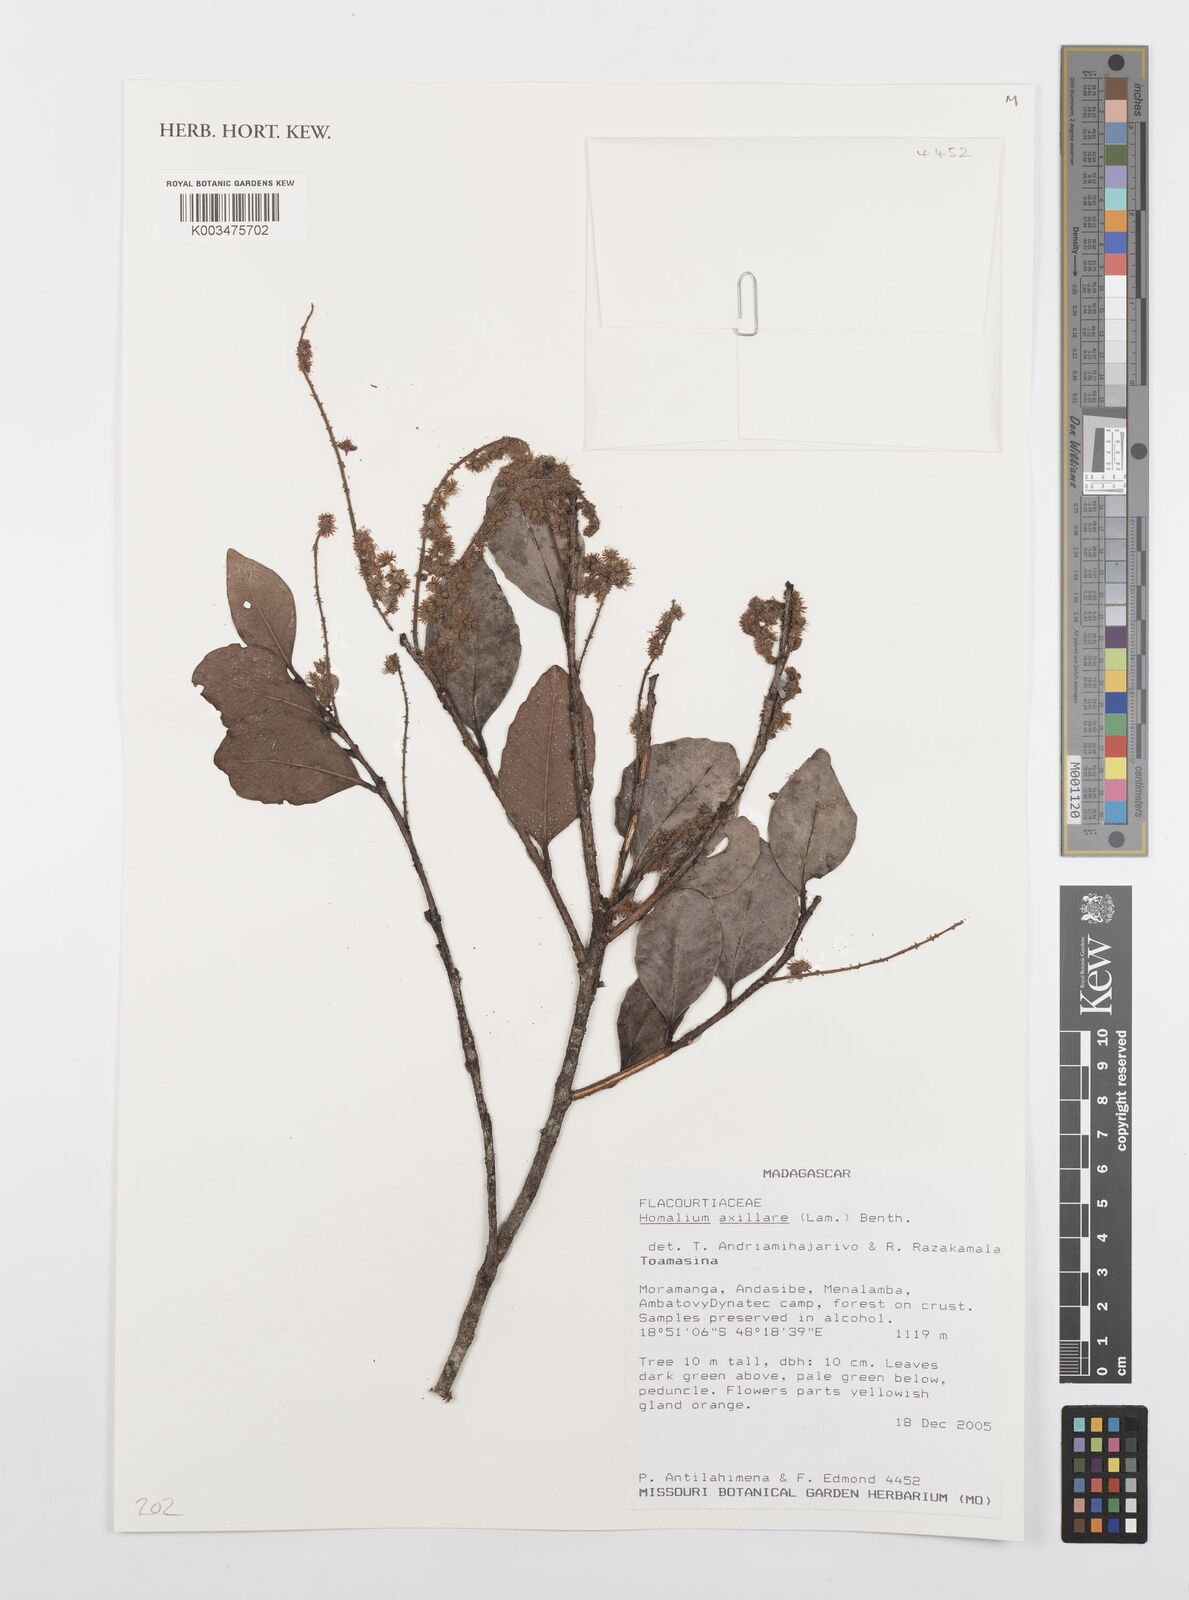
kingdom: Plantae
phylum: Tracheophyta
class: Magnoliopsida
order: Malpighiales
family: Salicaceae
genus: Homalium
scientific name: Homalium axillare
